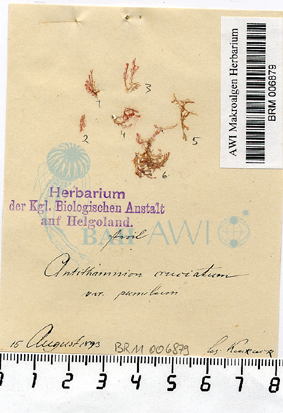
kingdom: Plantae
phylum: Rhodophyta
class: Florideophyceae
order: Ceramiales
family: Ceramiaceae
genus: Antithamnion
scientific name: Antithamnion cruciatum
